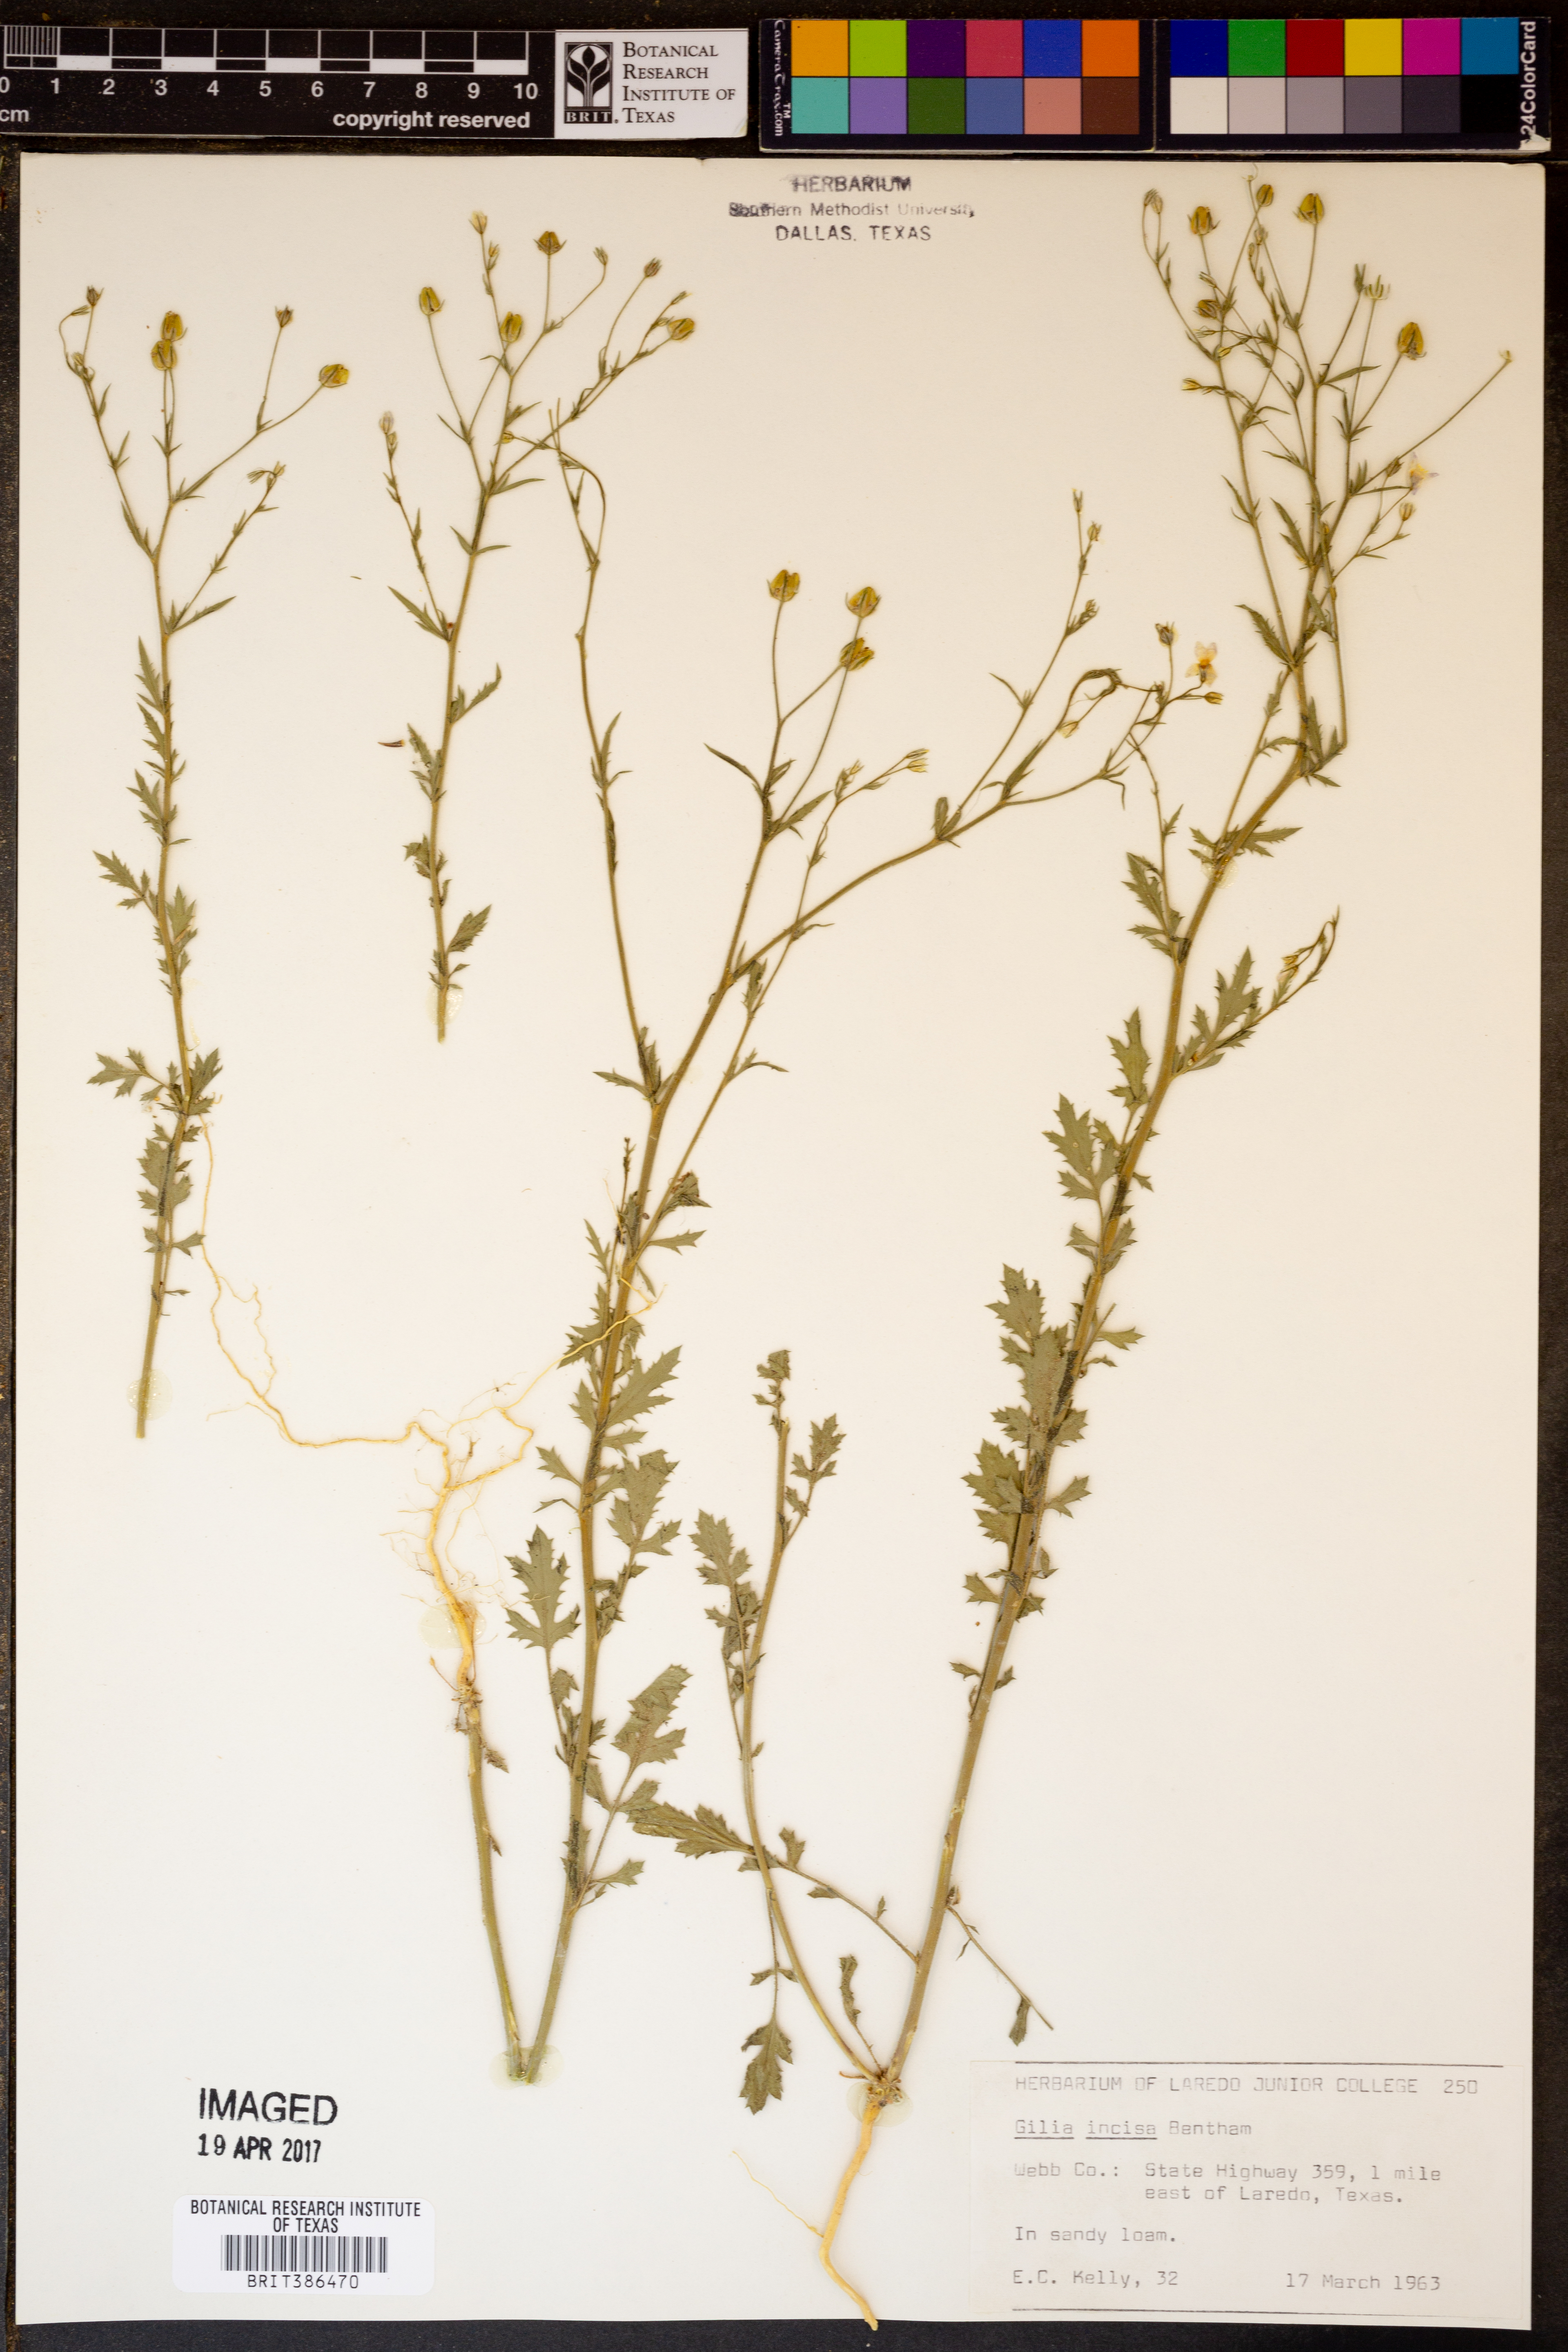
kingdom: Plantae
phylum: Tracheophyta
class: Magnoliopsida
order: Ericales
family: Polemoniaceae
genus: Giliastrum
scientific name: Giliastrum incisum
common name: Splitleaf gilia
